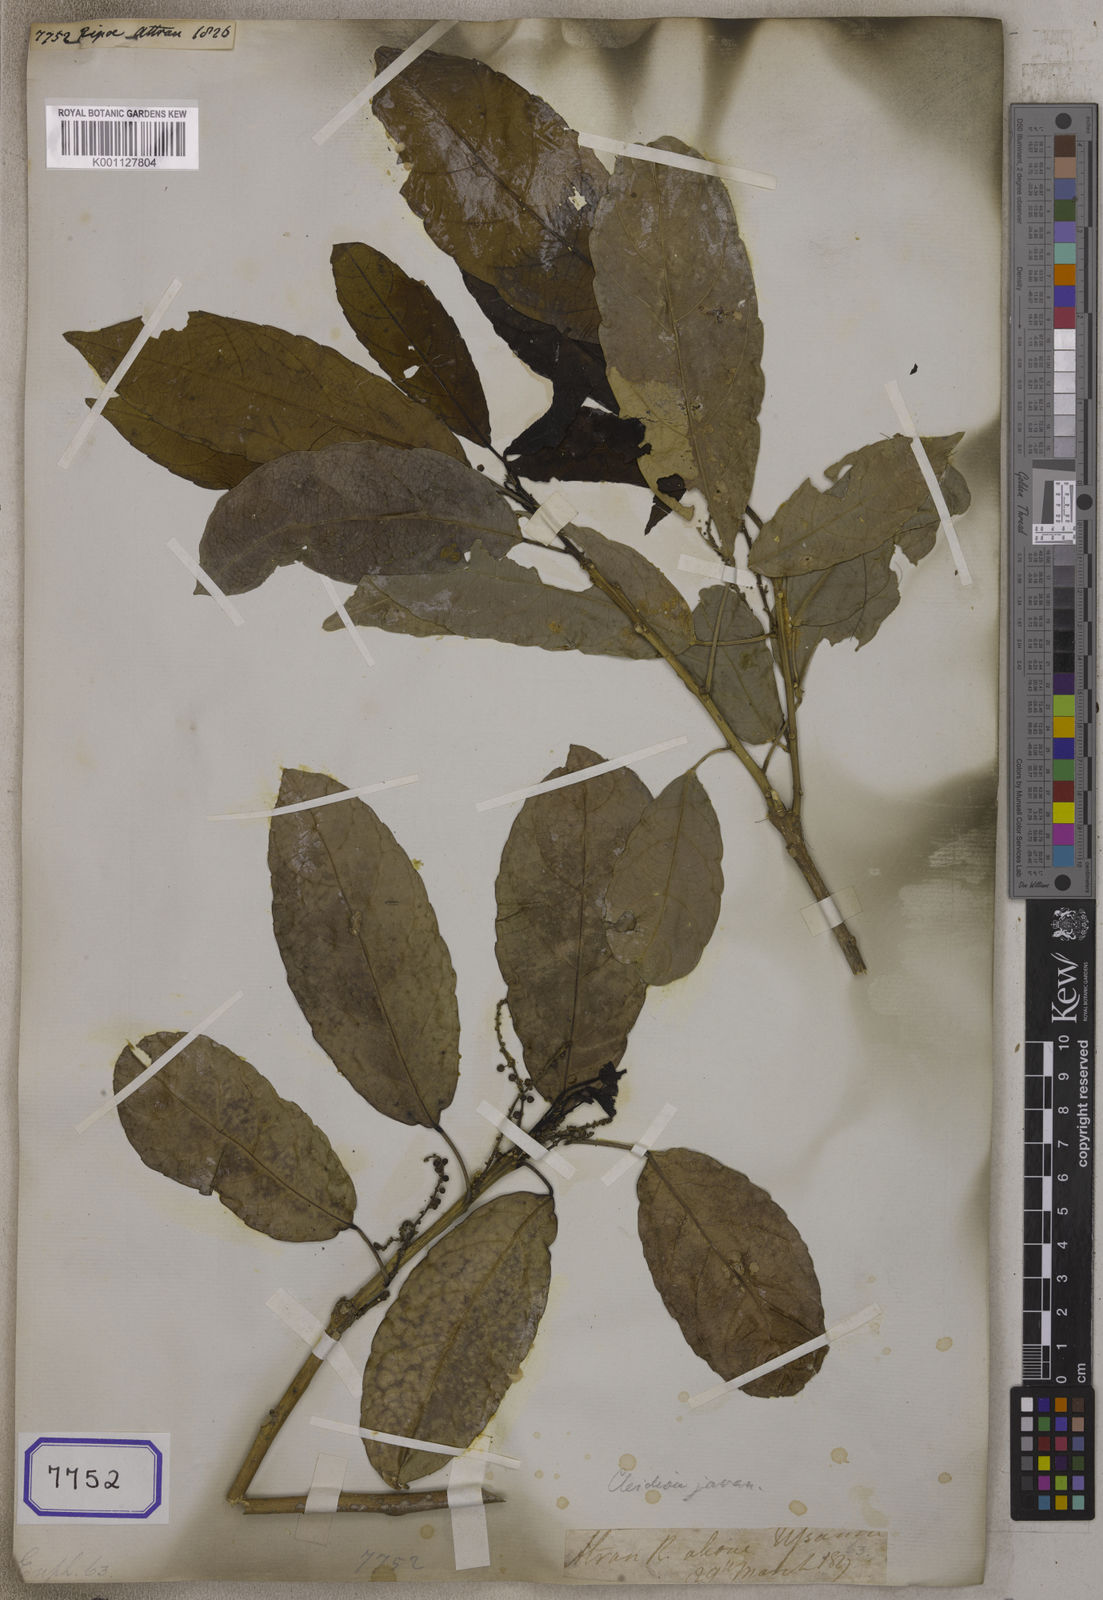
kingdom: Plantae
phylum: Tracheophyta
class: Magnoliopsida
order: Malpighiales
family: Euphorbiaceae
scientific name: Euphorbiaceae
